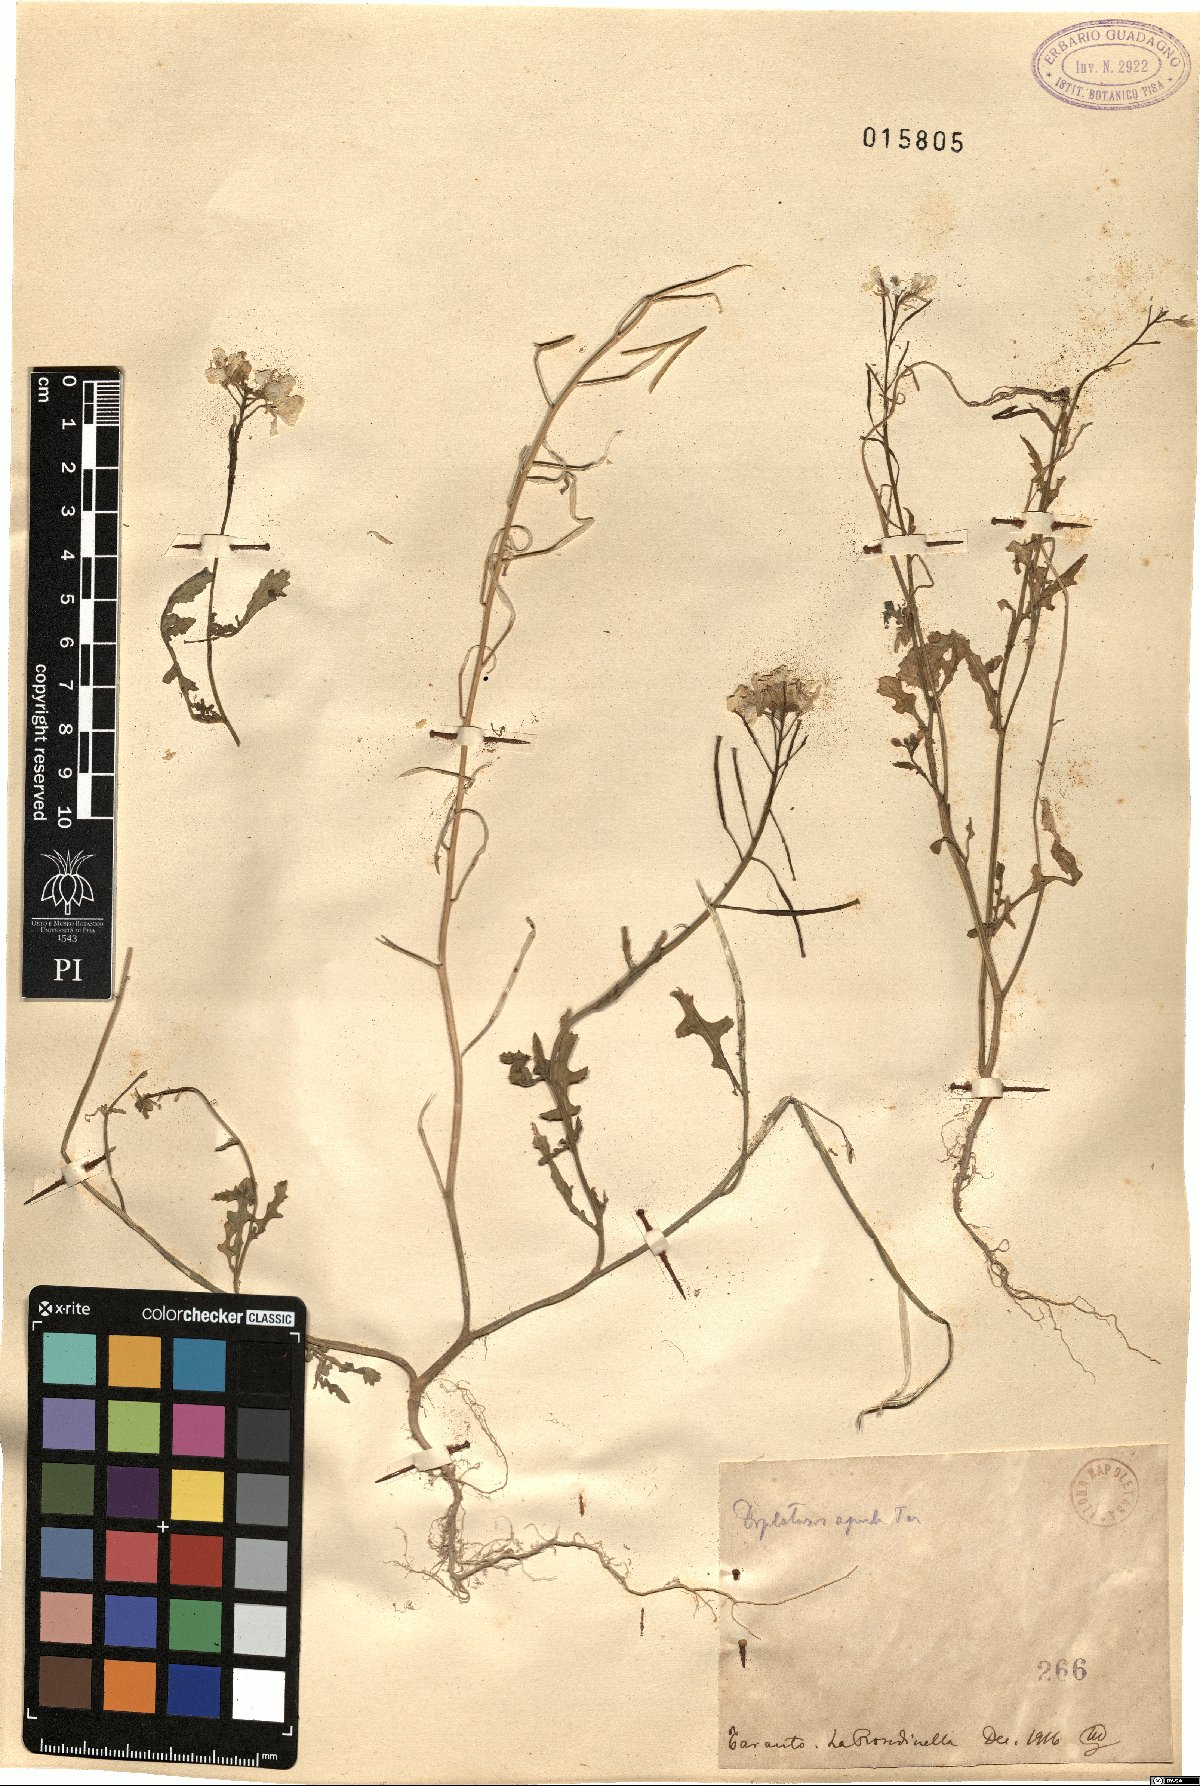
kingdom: Plantae
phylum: Tracheophyta
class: Magnoliopsida
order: Brassicales
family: Brassicaceae
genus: Diplotaxis
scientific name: Diplotaxis erucoides
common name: White rocket
